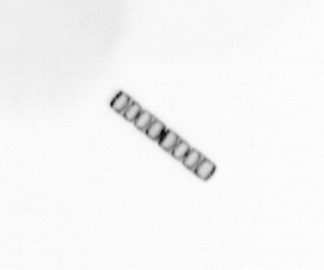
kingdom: Chromista
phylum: Ochrophyta
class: Bacillariophyceae
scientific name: Bacillariophyceae
